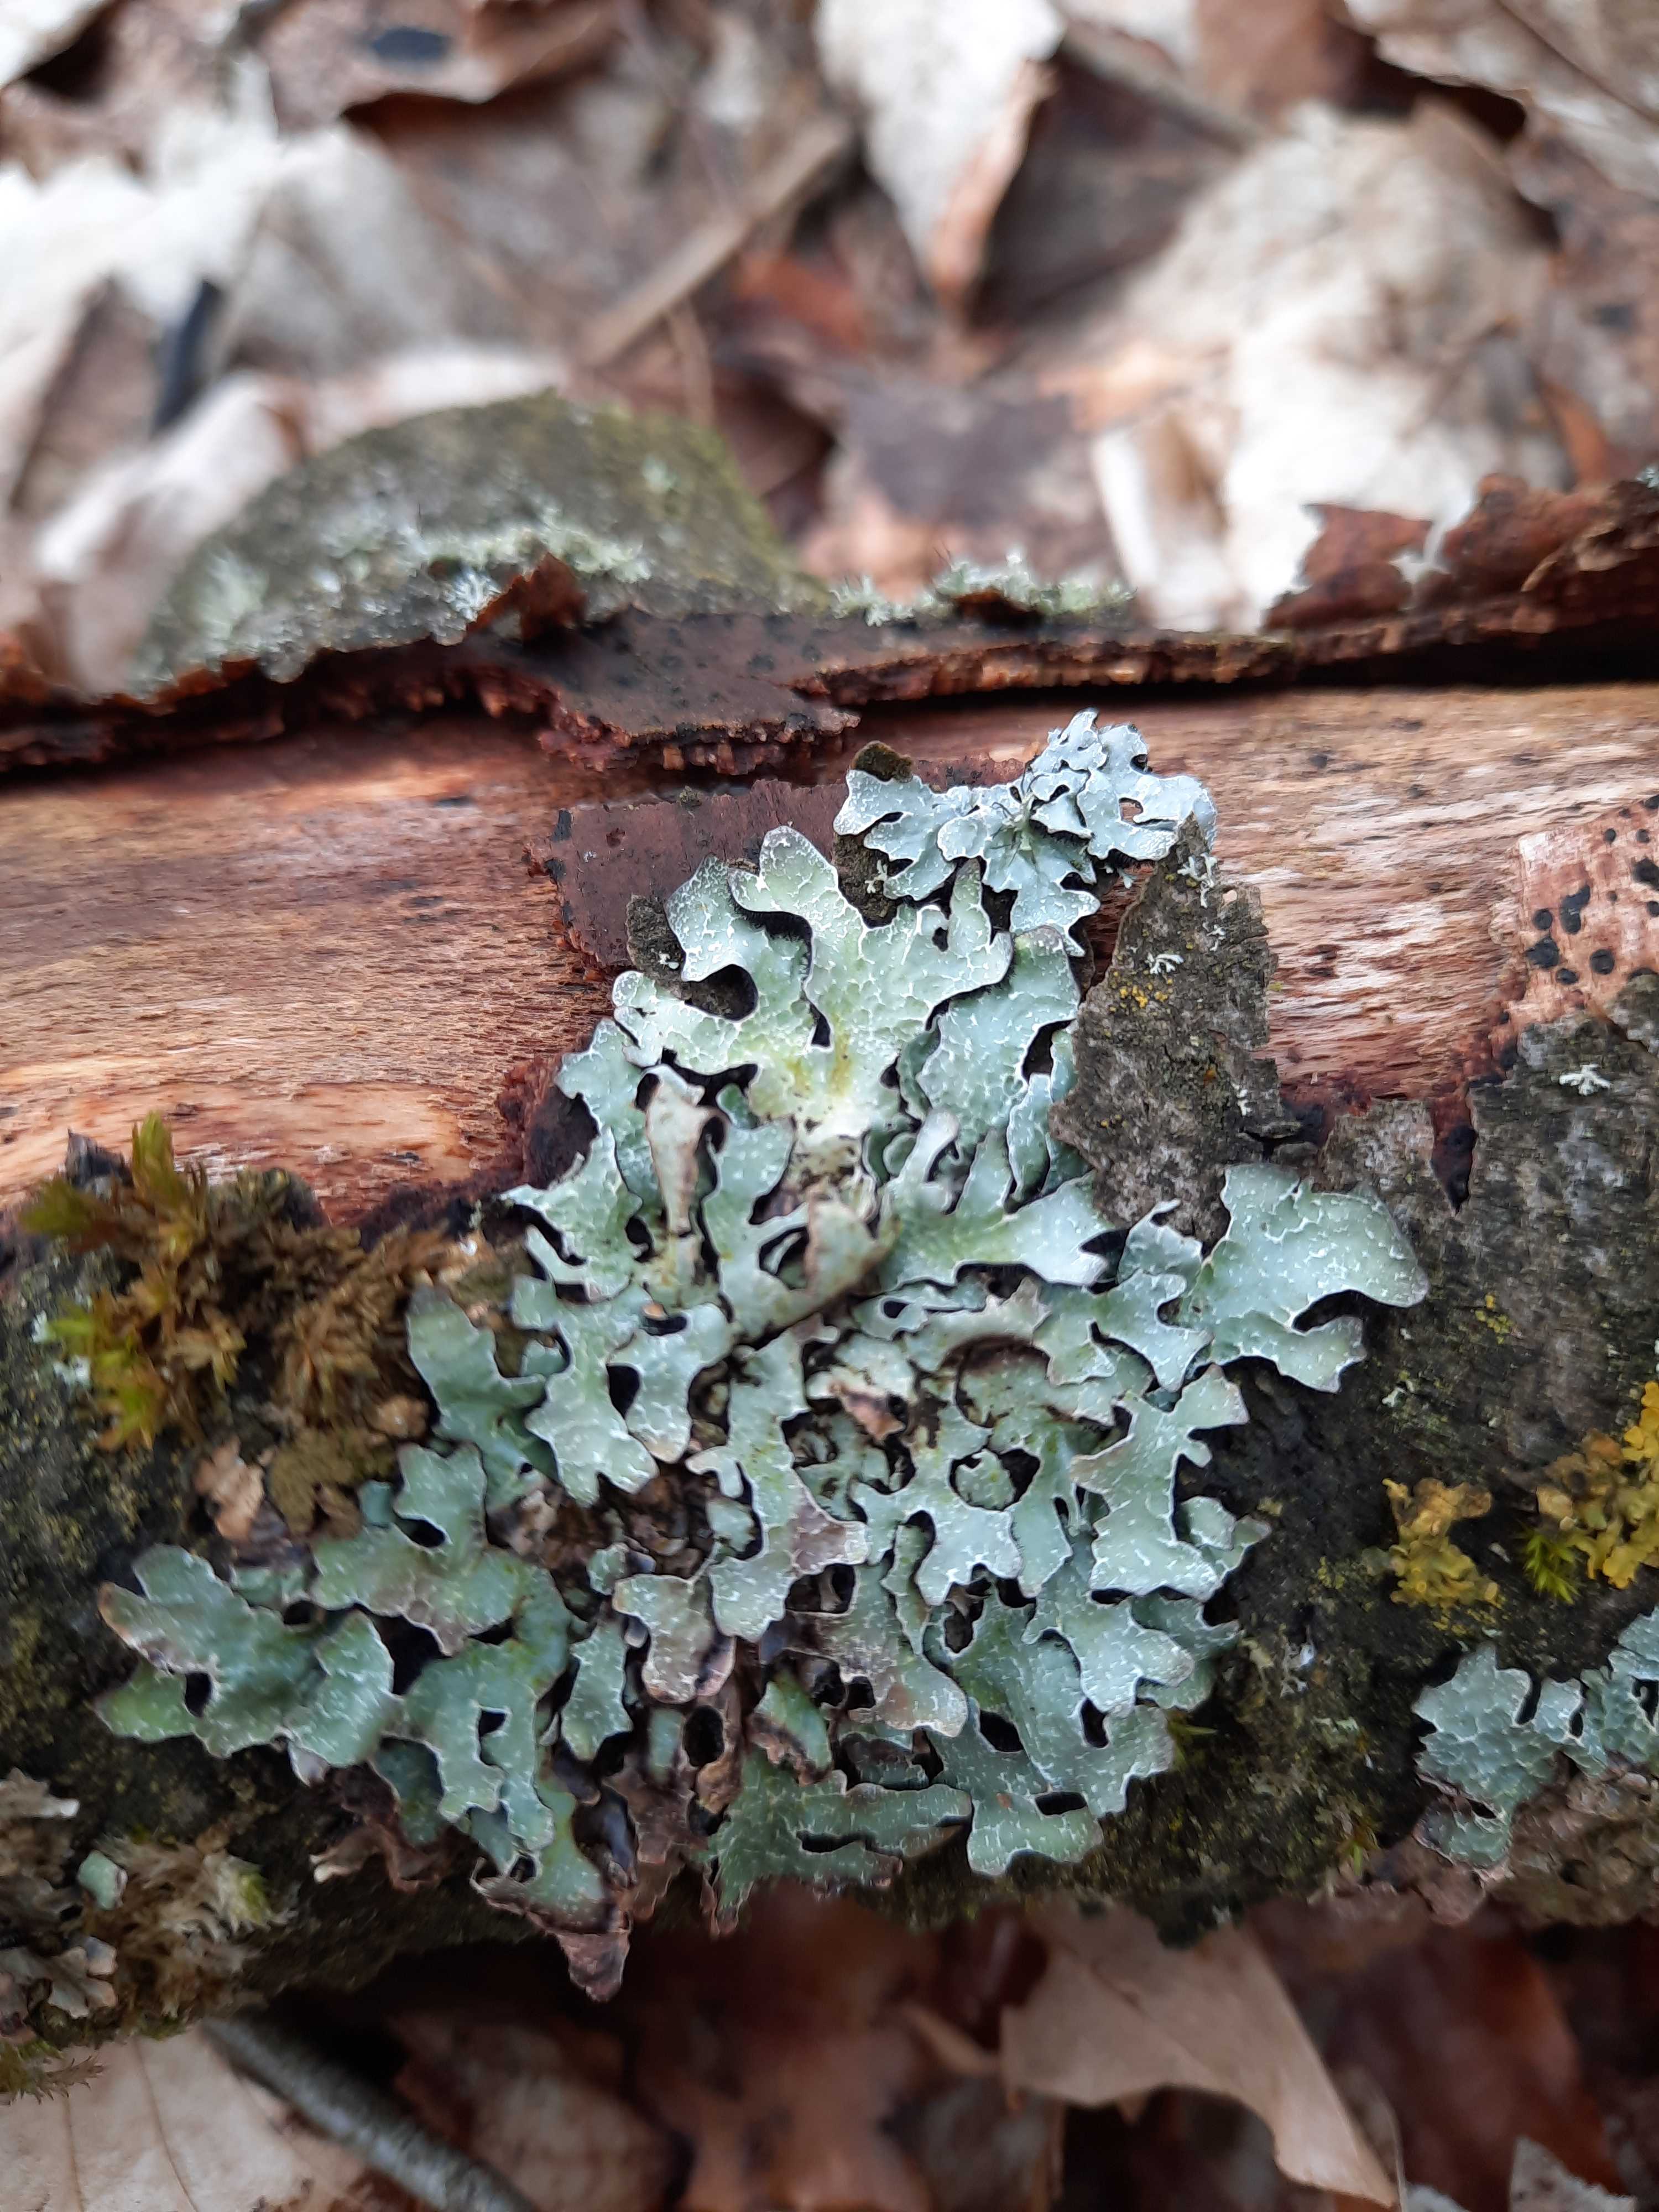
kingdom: Fungi
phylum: Ascomycota
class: Lecanoromycetes
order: Lecanorales
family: Parmeliaceae
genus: Parmelia
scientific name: Parmelia sulcata
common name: rynket skållav
